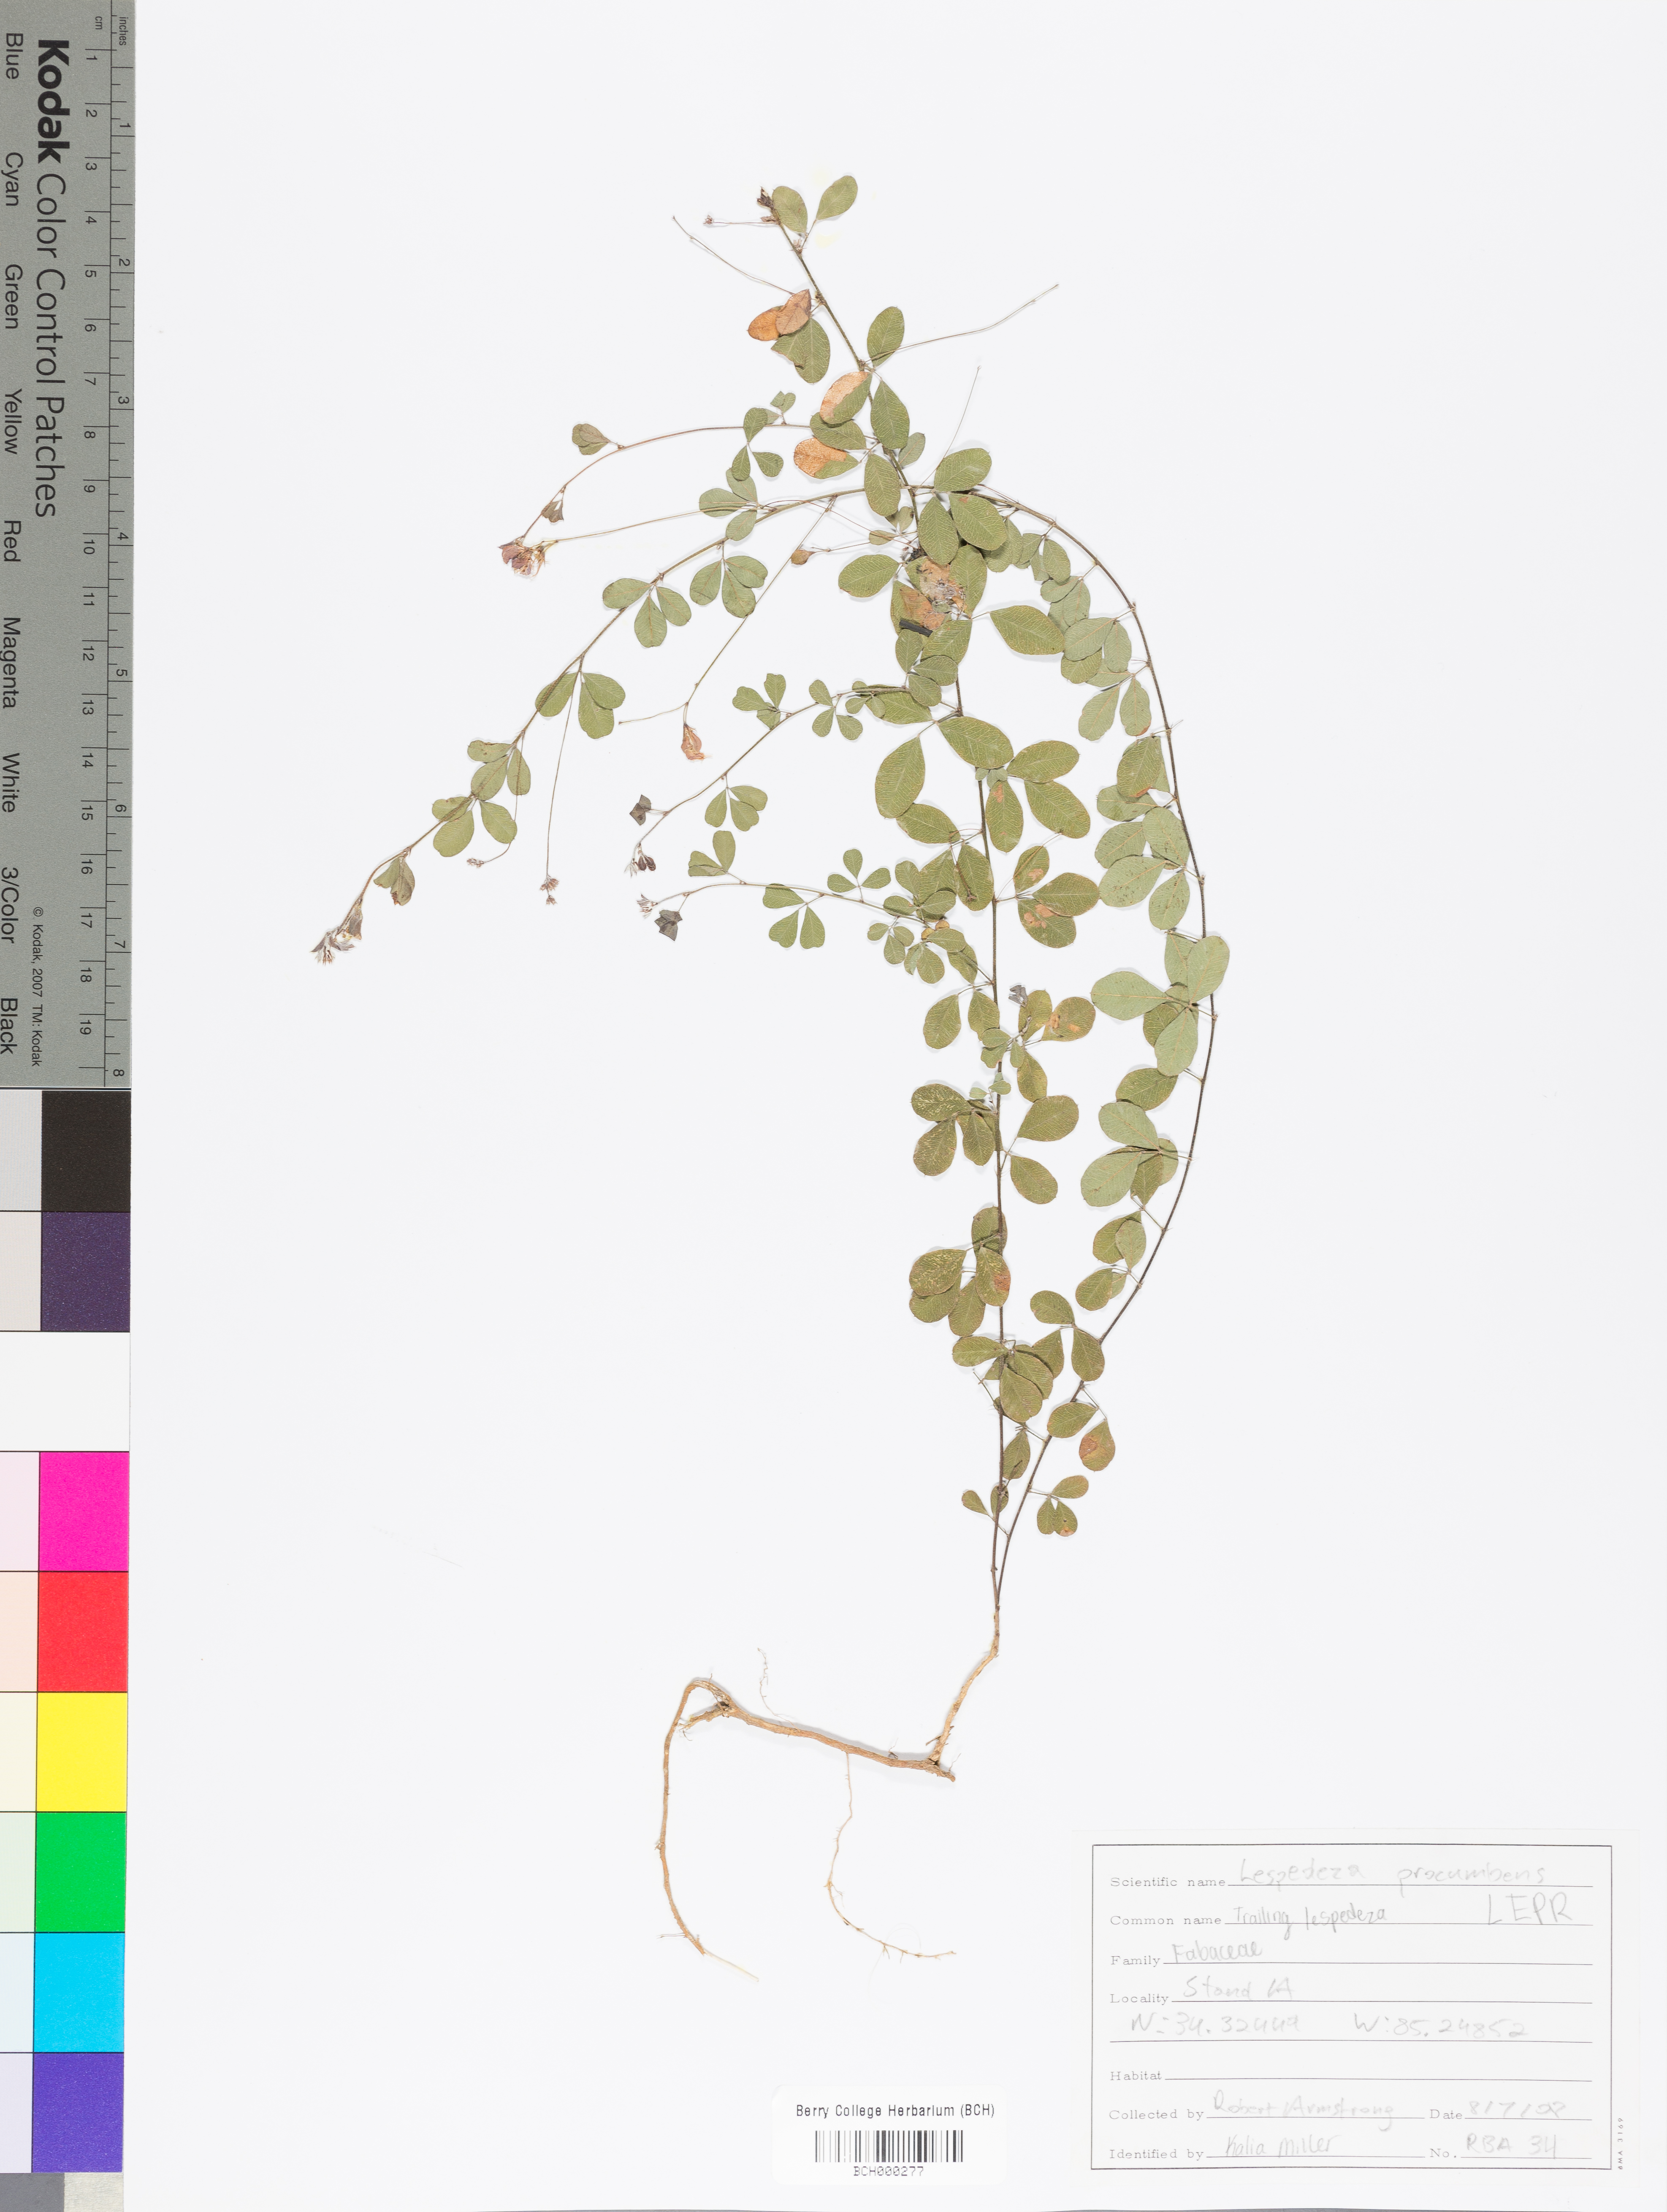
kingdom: Plantae
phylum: Tracheophyta
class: Magnoliopsida
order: Fabales
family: Fabaceae
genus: Lespedeza
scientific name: Lespedeza procumbens
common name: Downy trailing bush-clover
